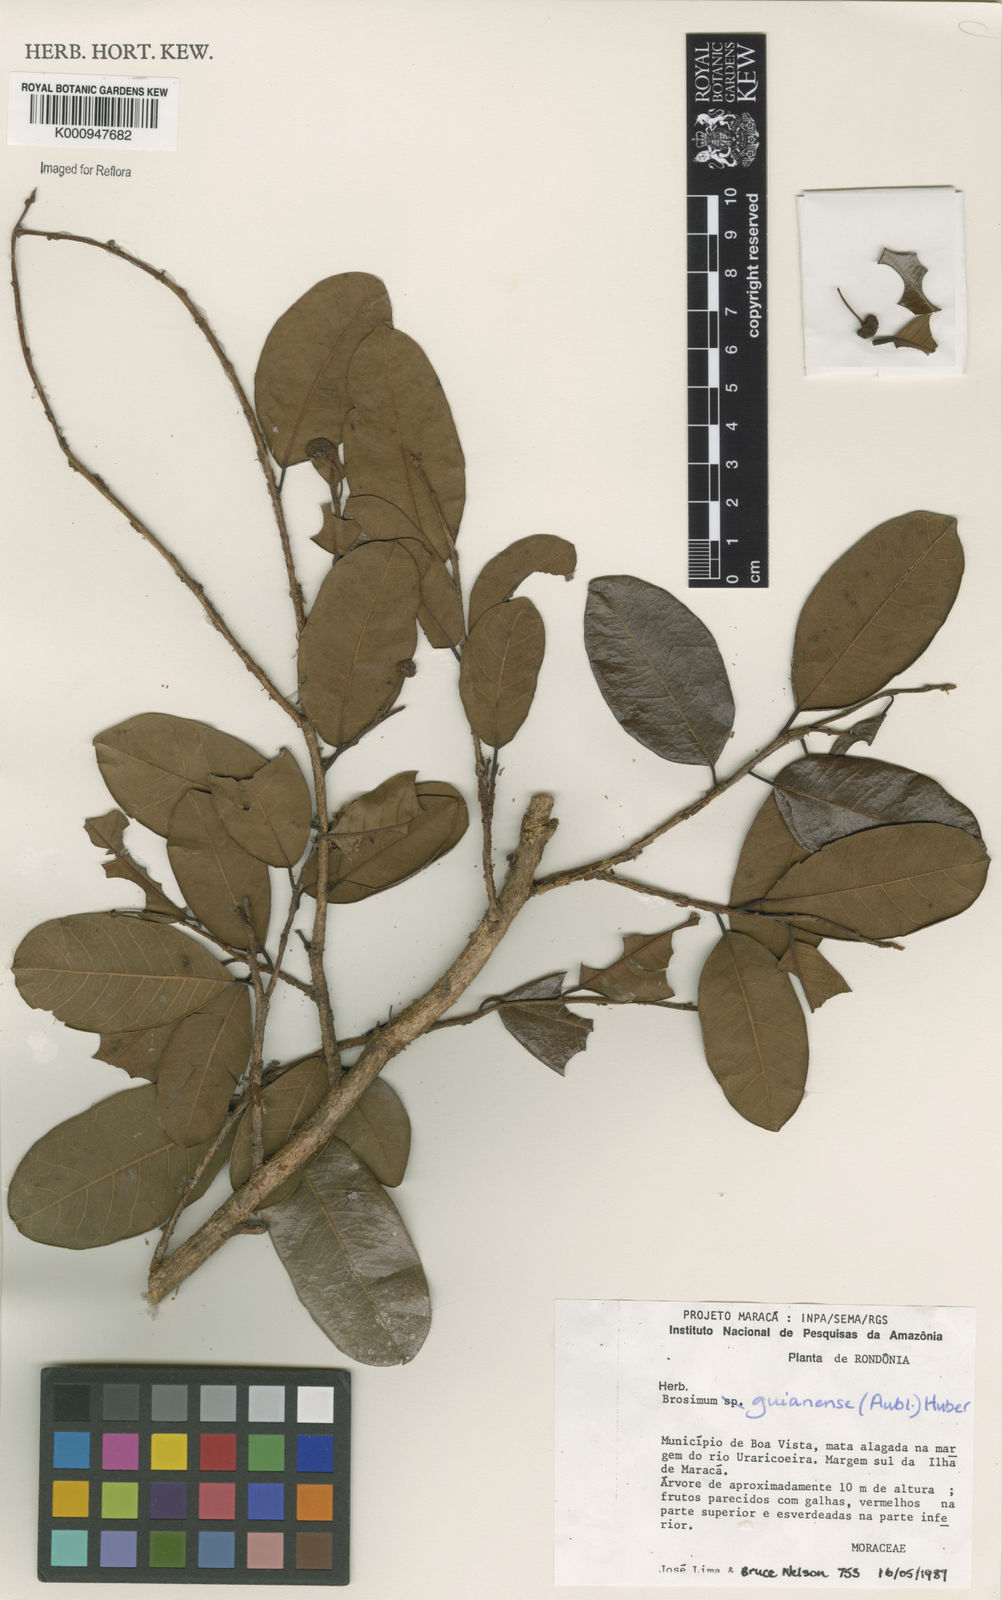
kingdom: Plantae
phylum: Tracheophyta
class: Magnoliopsida
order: Rosales
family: Moraceae
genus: Brosimum
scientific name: Brosimum
